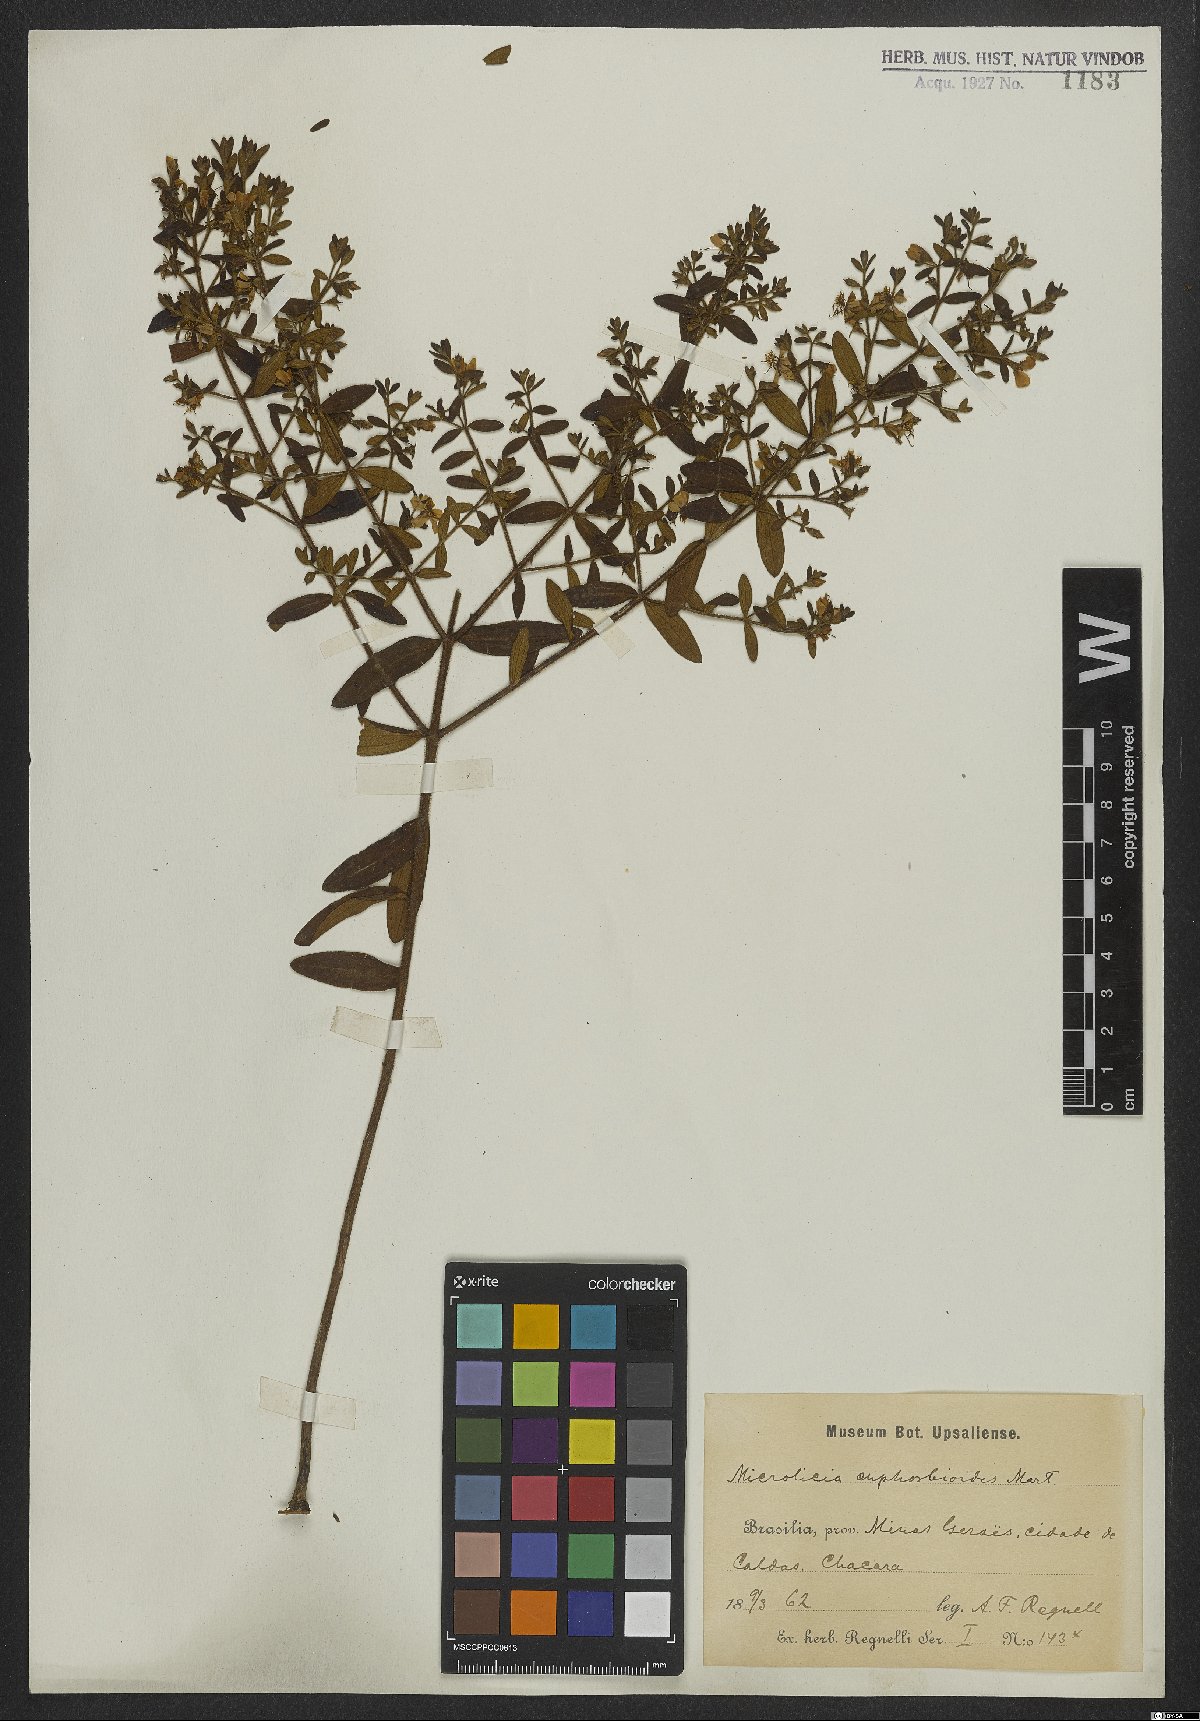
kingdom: Plantae
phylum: Tracheophyta
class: Magnoliopsida
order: Myrtales
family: Melastomataceae
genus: Microlicia
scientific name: Microlicia euphorbioides
